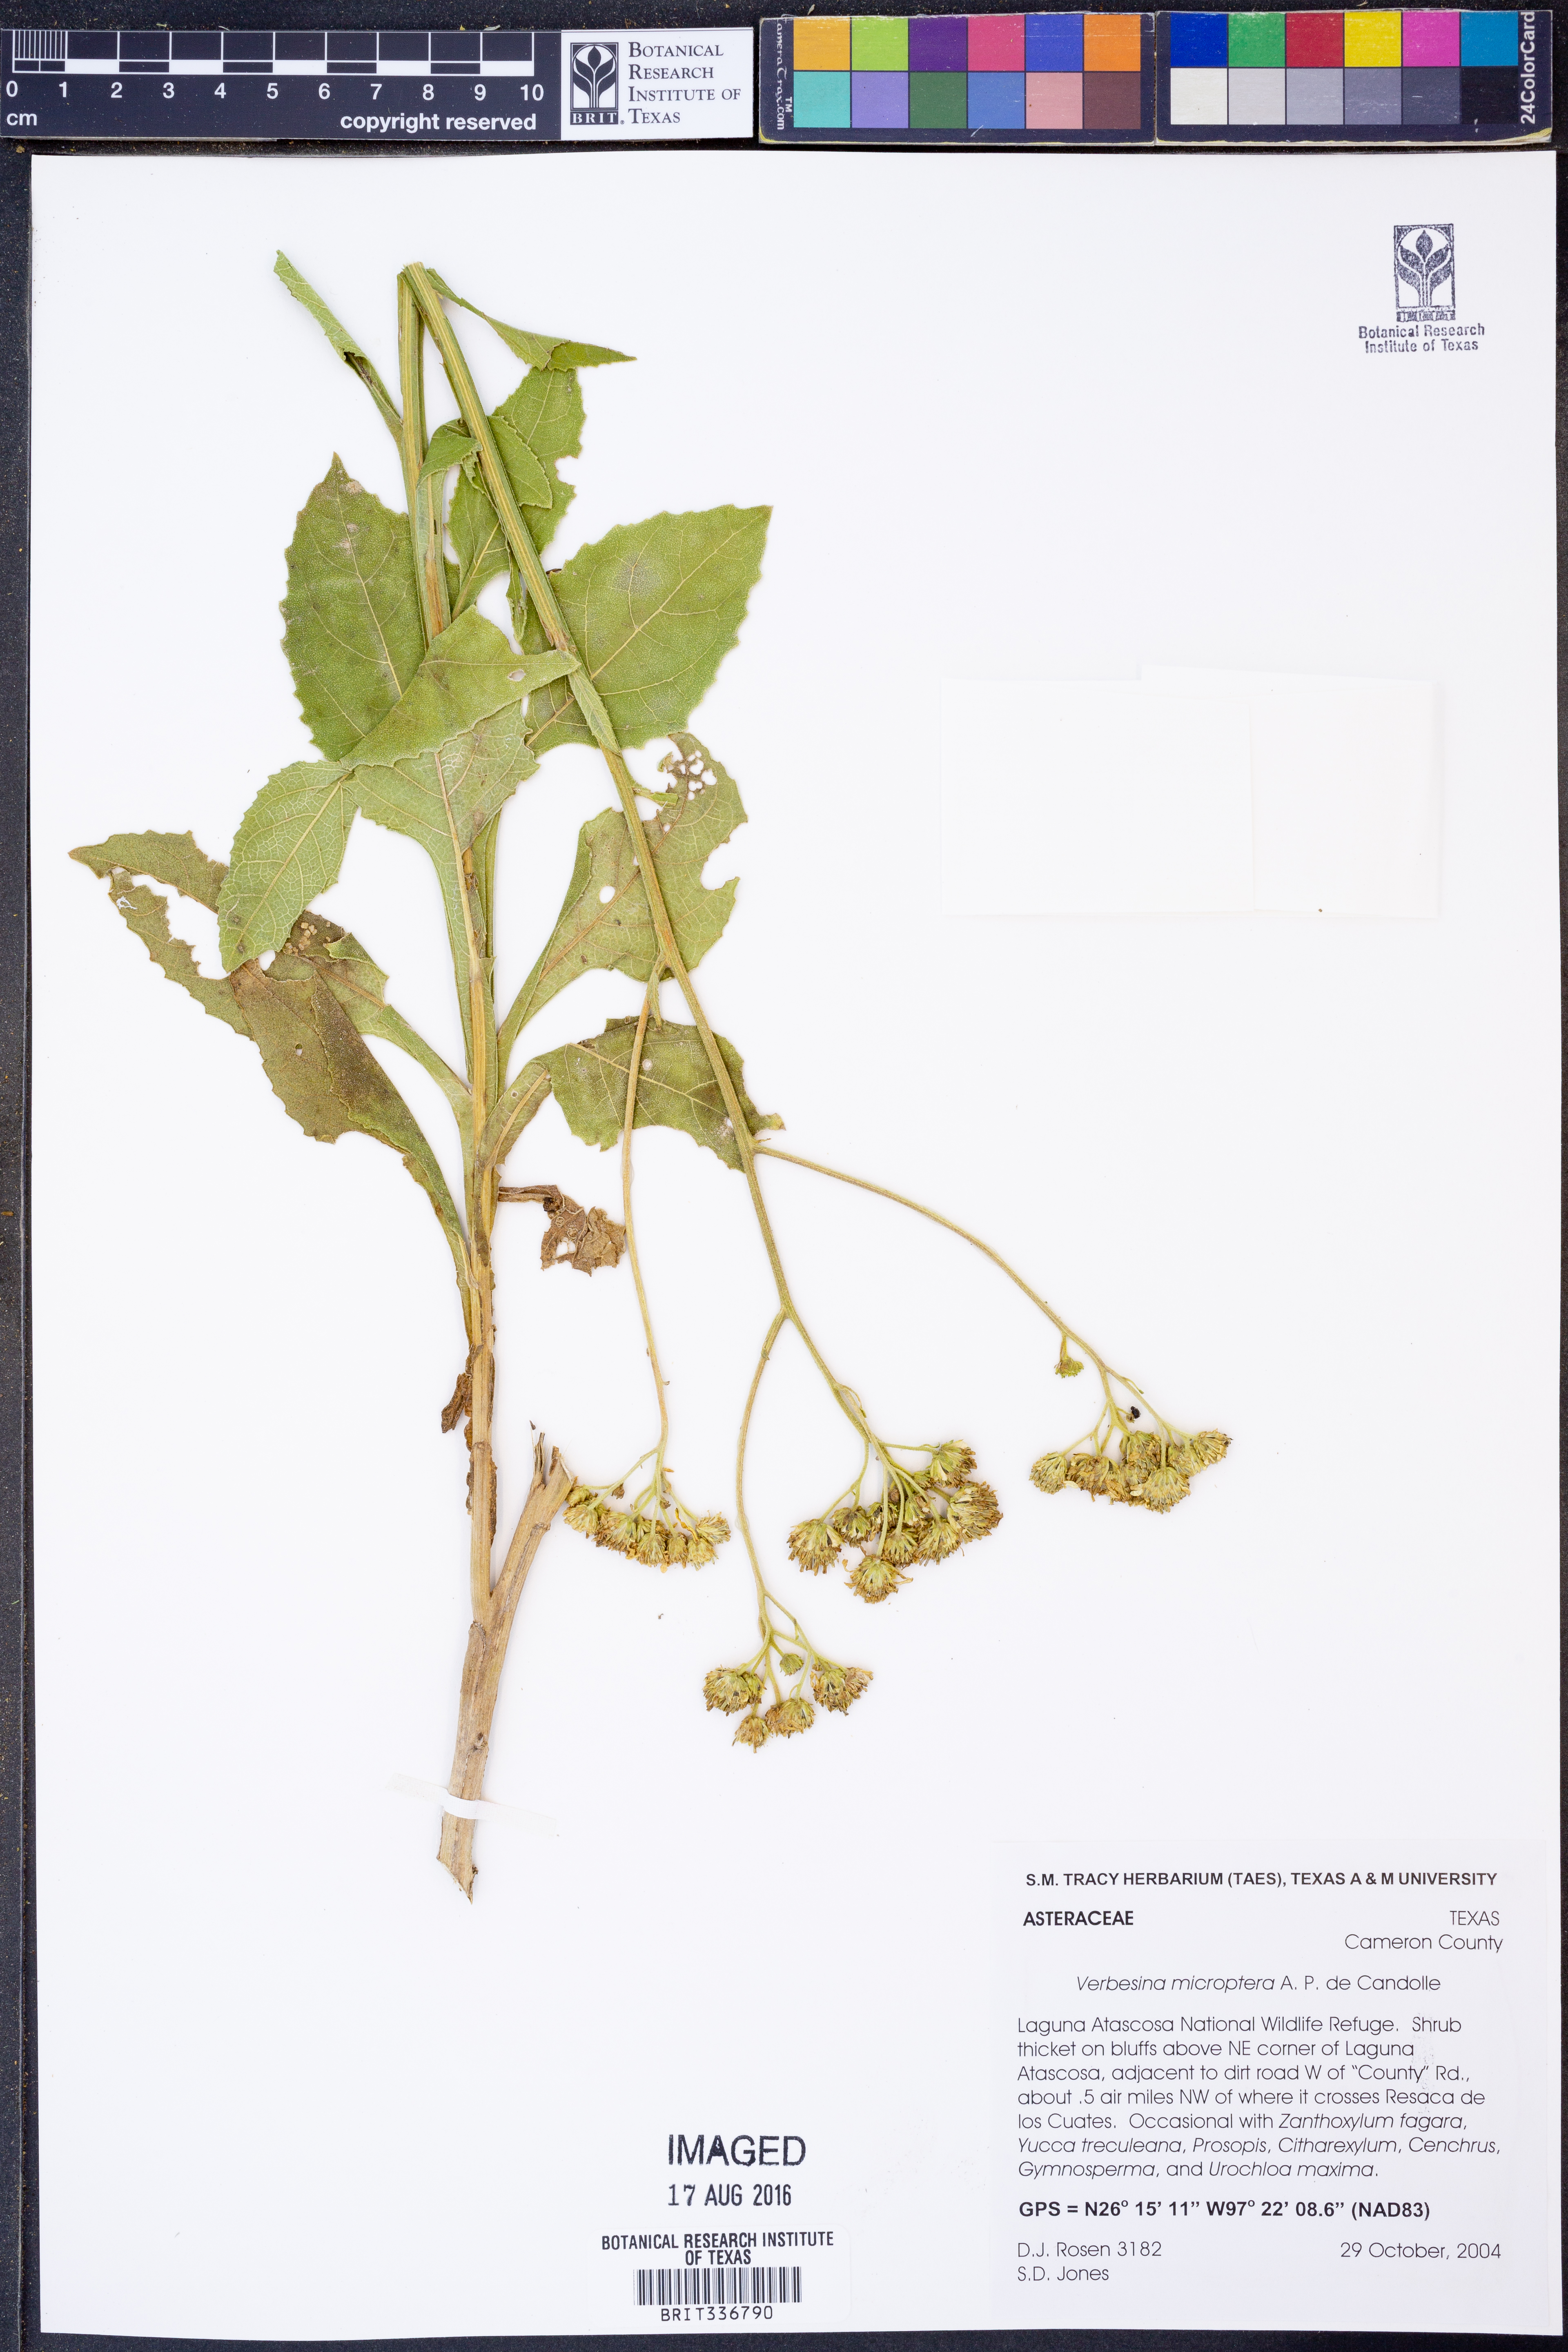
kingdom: Plantae
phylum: Tracheophyta
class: Magnoliopsida
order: Asterales
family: Asteraceae
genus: Verbesina
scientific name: Verbesina encelioides
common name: Golden crownbeard
